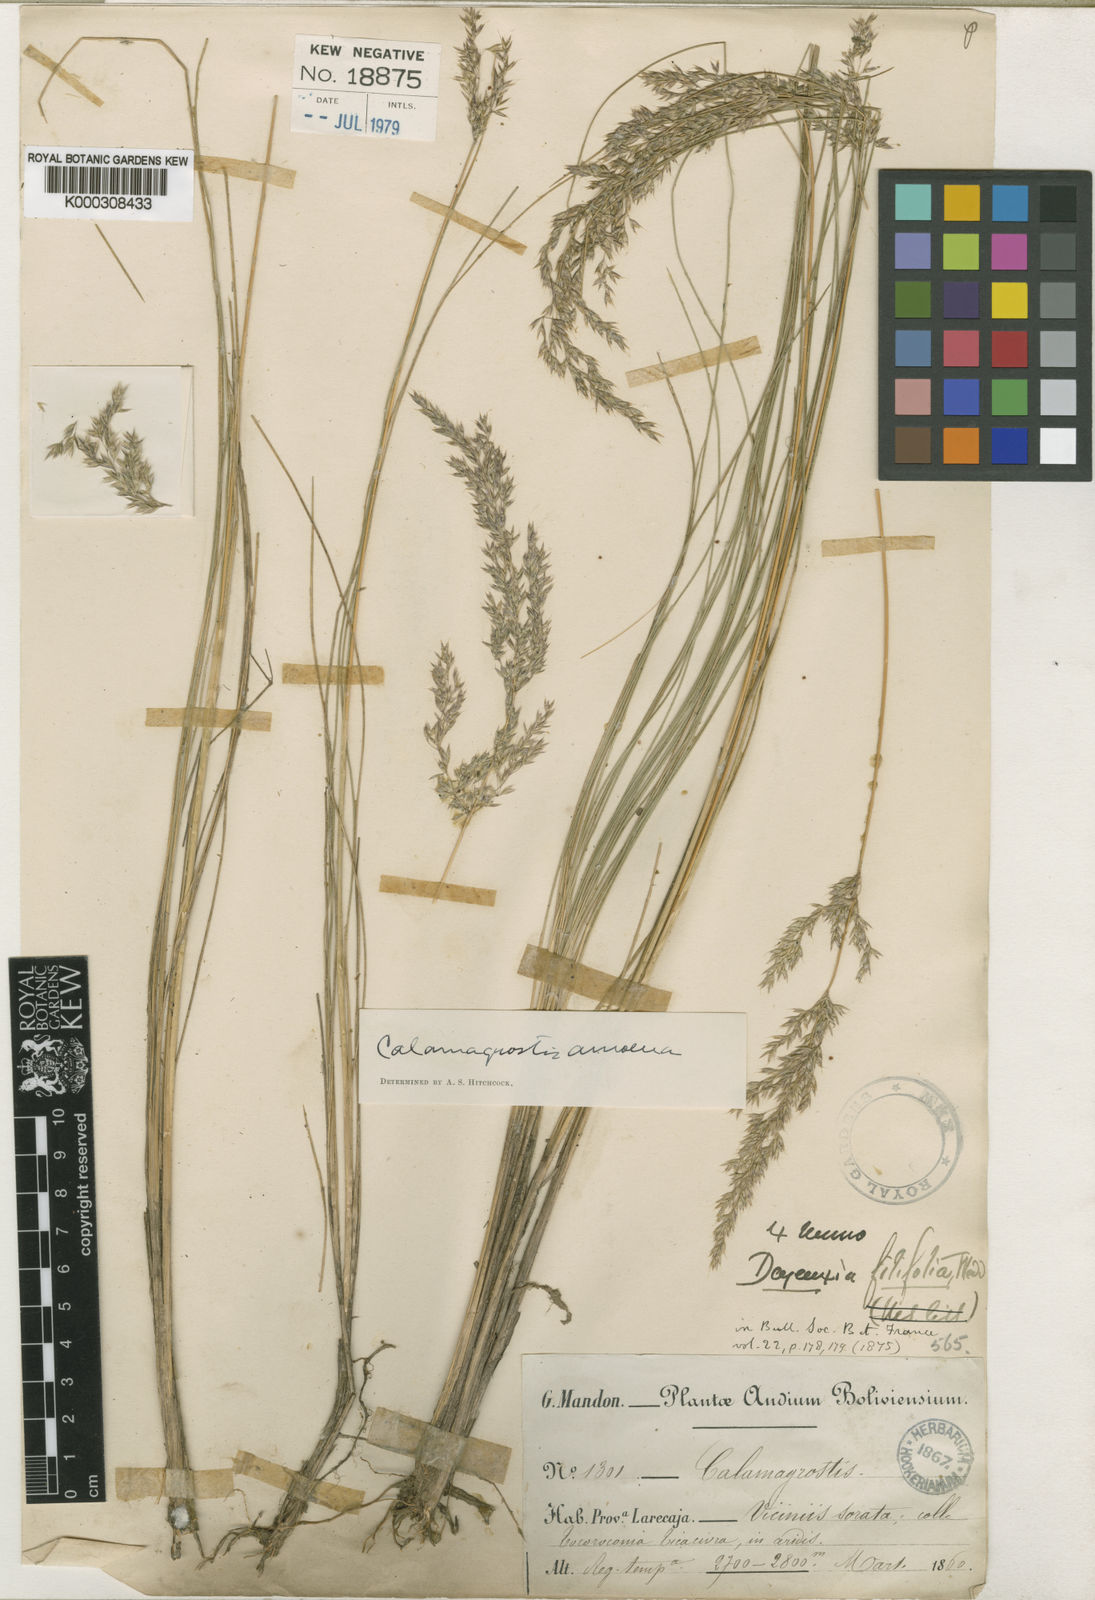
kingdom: Plantae
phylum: Tracheophyta
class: Liliopsida
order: Poales
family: Poaceae
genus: Cinnagrostis
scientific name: Cinnagrostis filifolia
